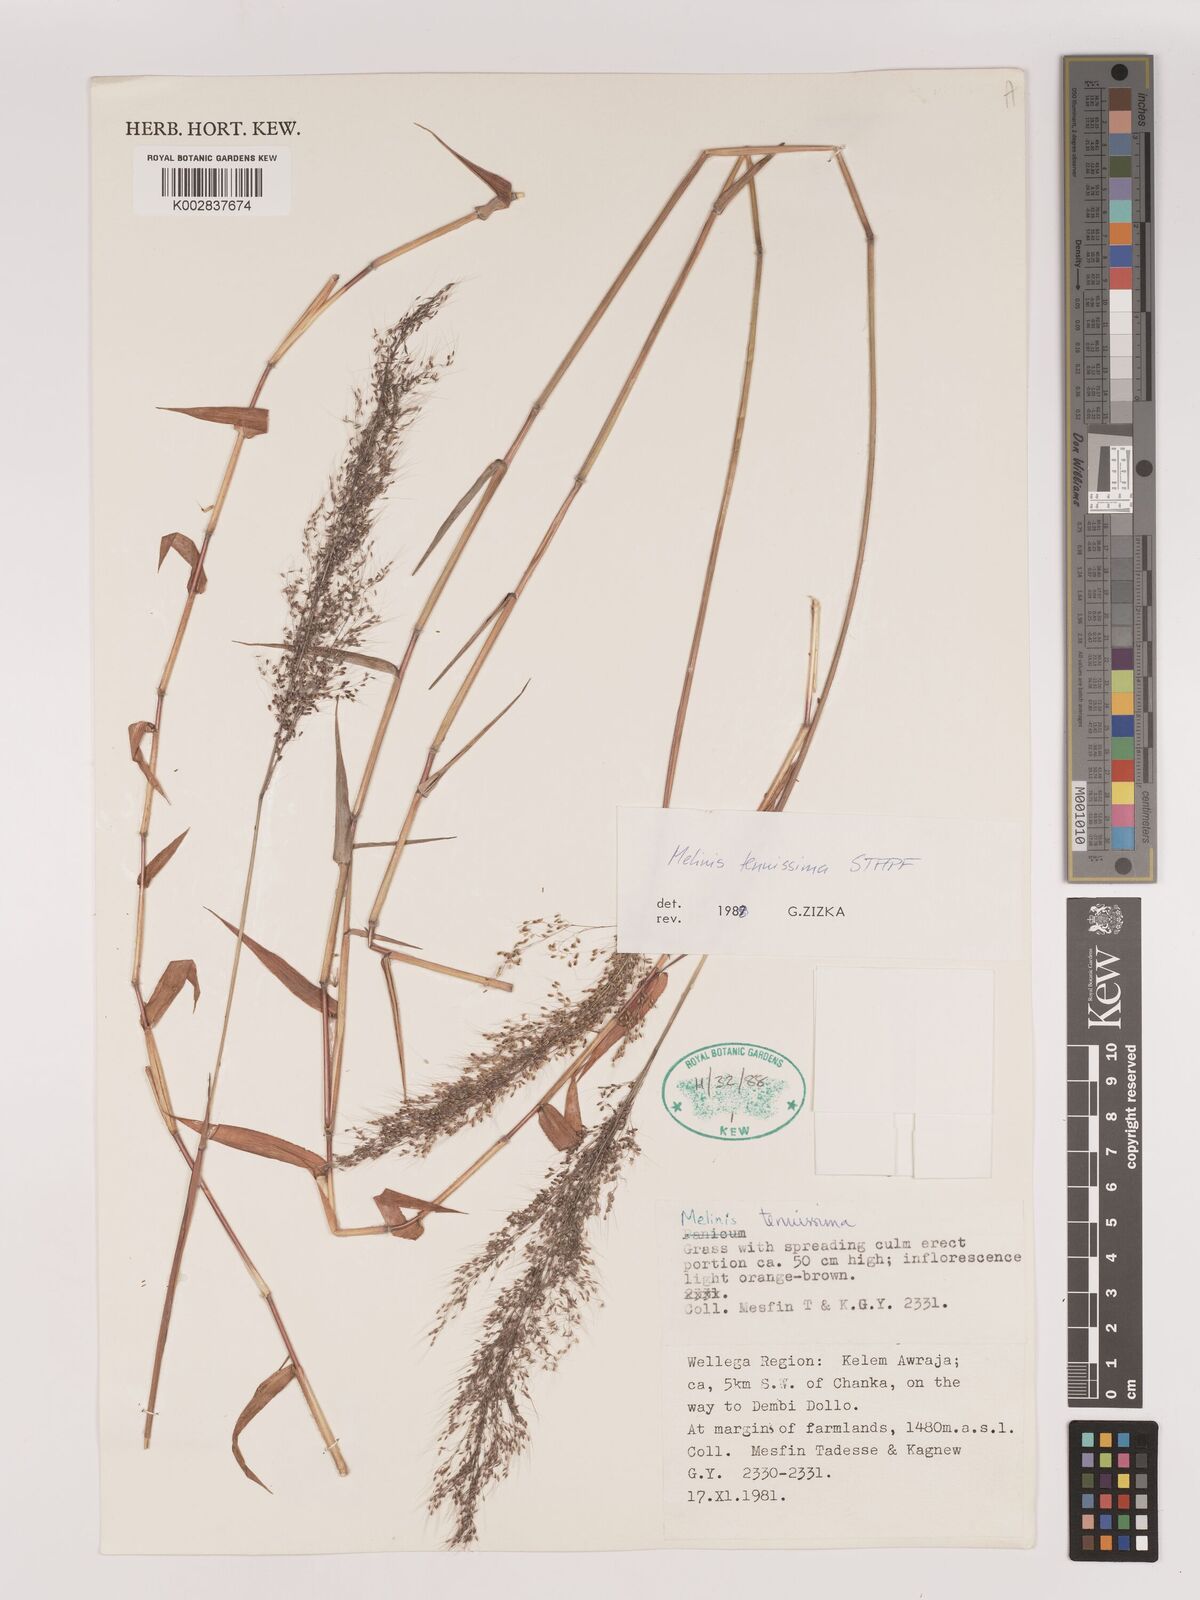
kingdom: Plantae
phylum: Tracheophyta
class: Liliopsida
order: Poales
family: Poaceae
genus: Melinis
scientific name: Melinis tenuissima
